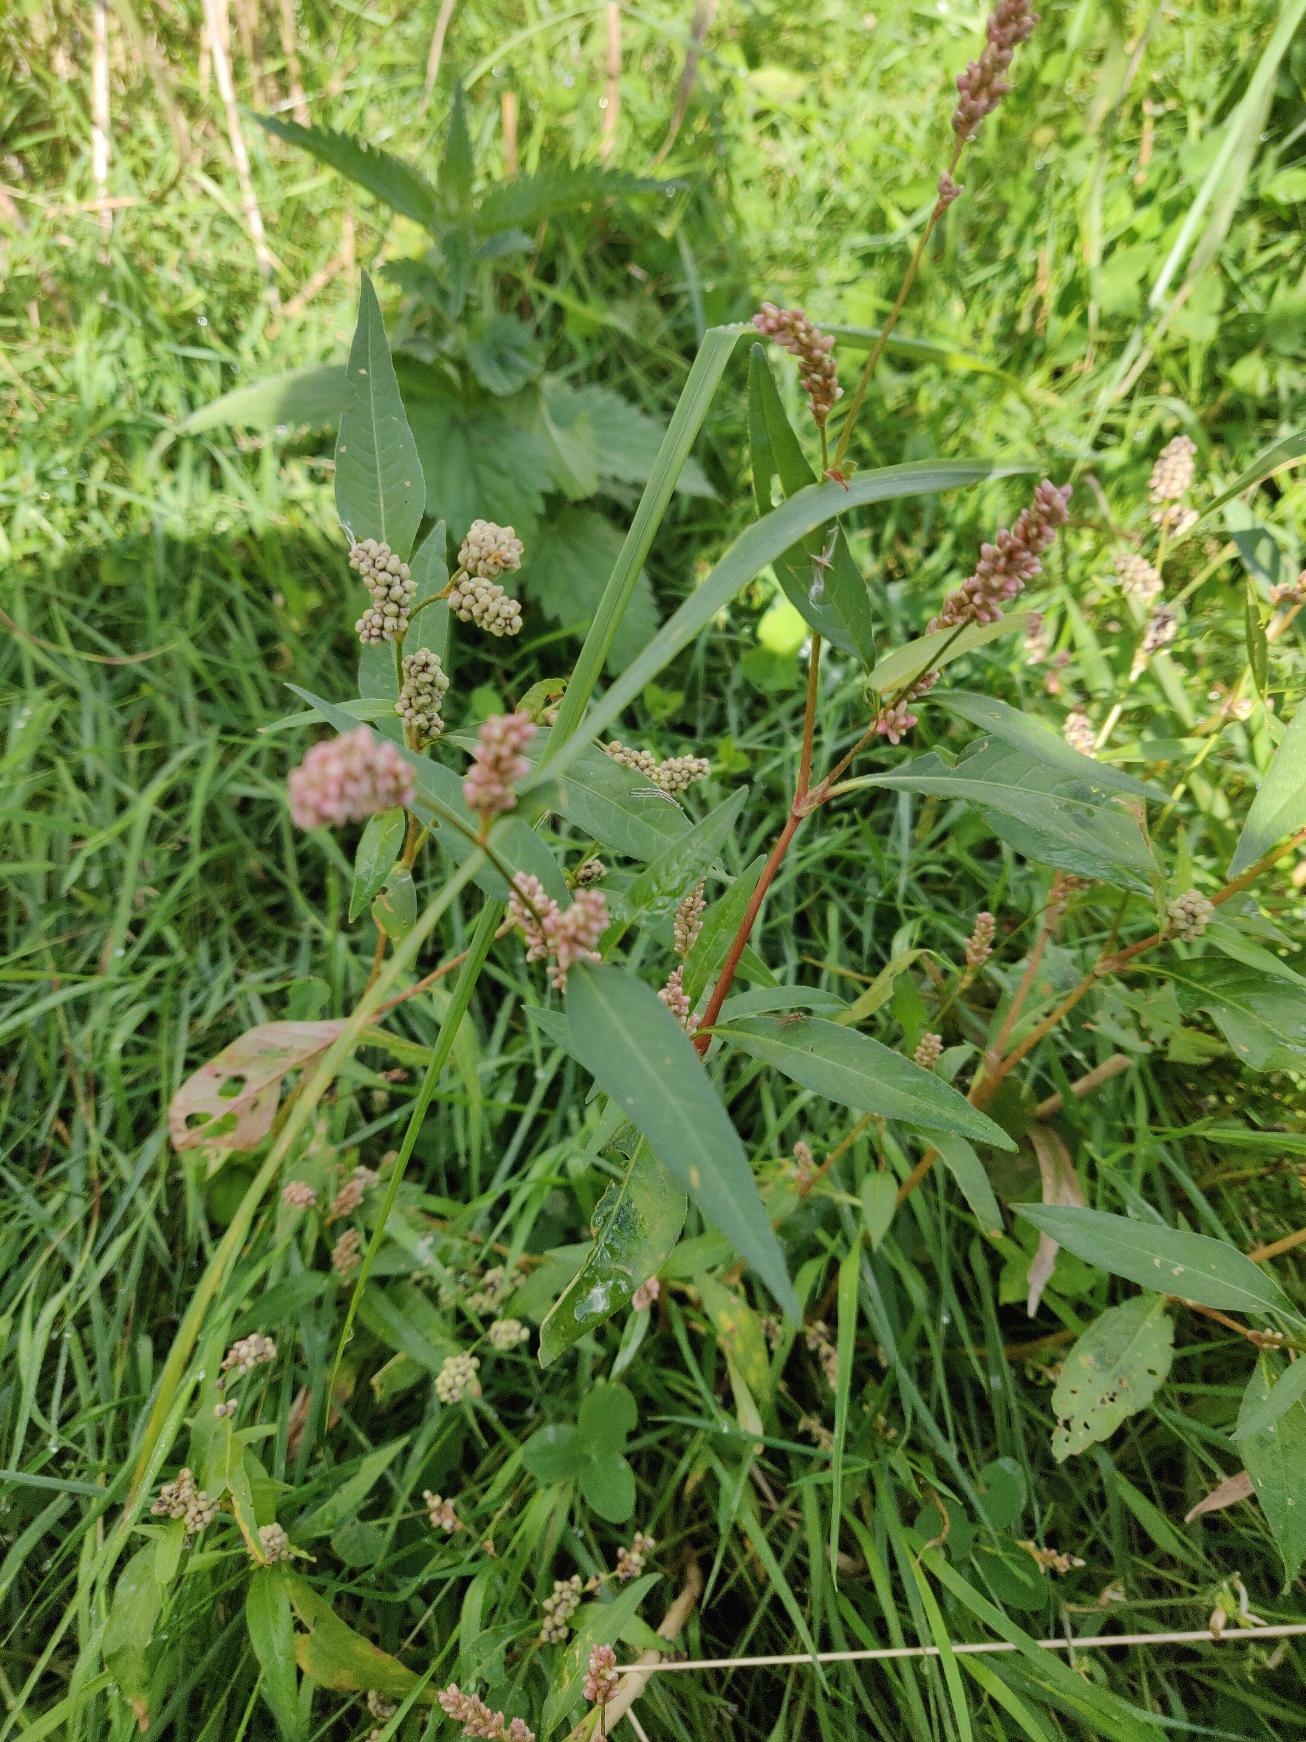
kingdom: Plantae
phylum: Tracheophyta
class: Magnoliopsida
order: Caryophyllales
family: Polygonaceae
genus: Persicaria
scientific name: Persicaria lapathifolia
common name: Knudet pileurt (underart)
